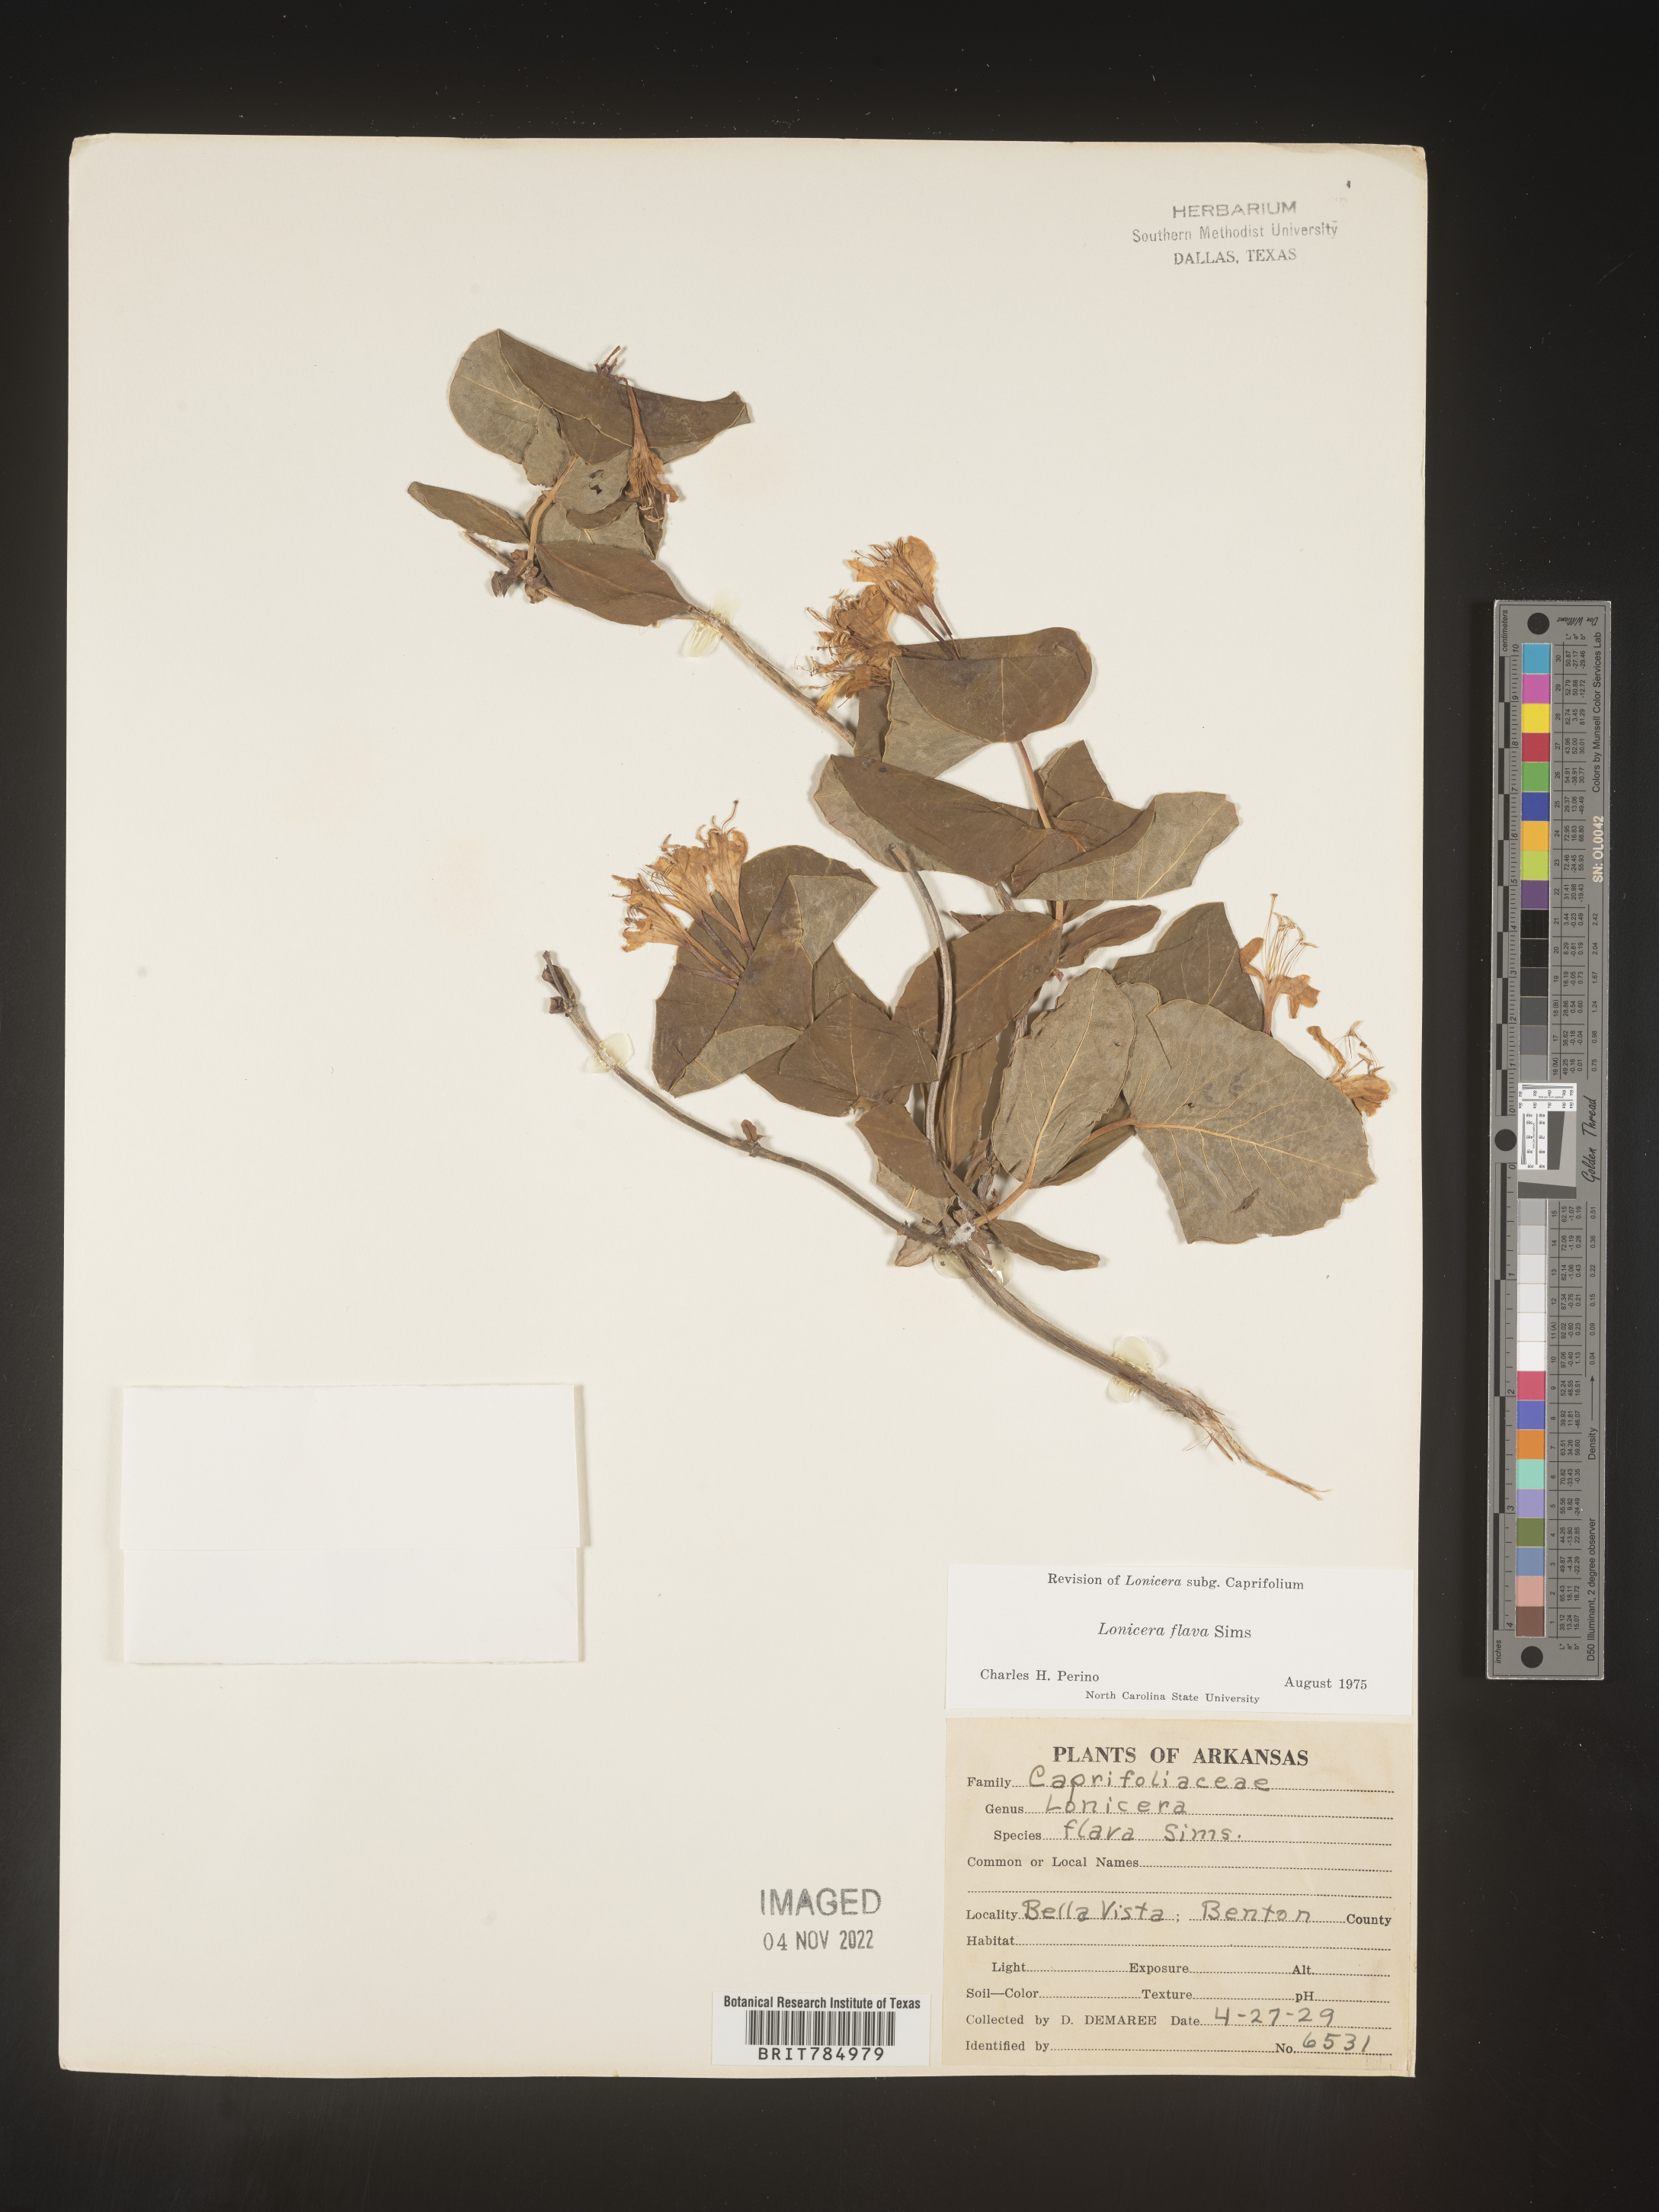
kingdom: Plantae
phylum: Tracheophyta
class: Magnoliopsida
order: Dipsacales
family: Caprifoliaceae
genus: Lonicera
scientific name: Lonicera flava
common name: Yellow honeysuckle
